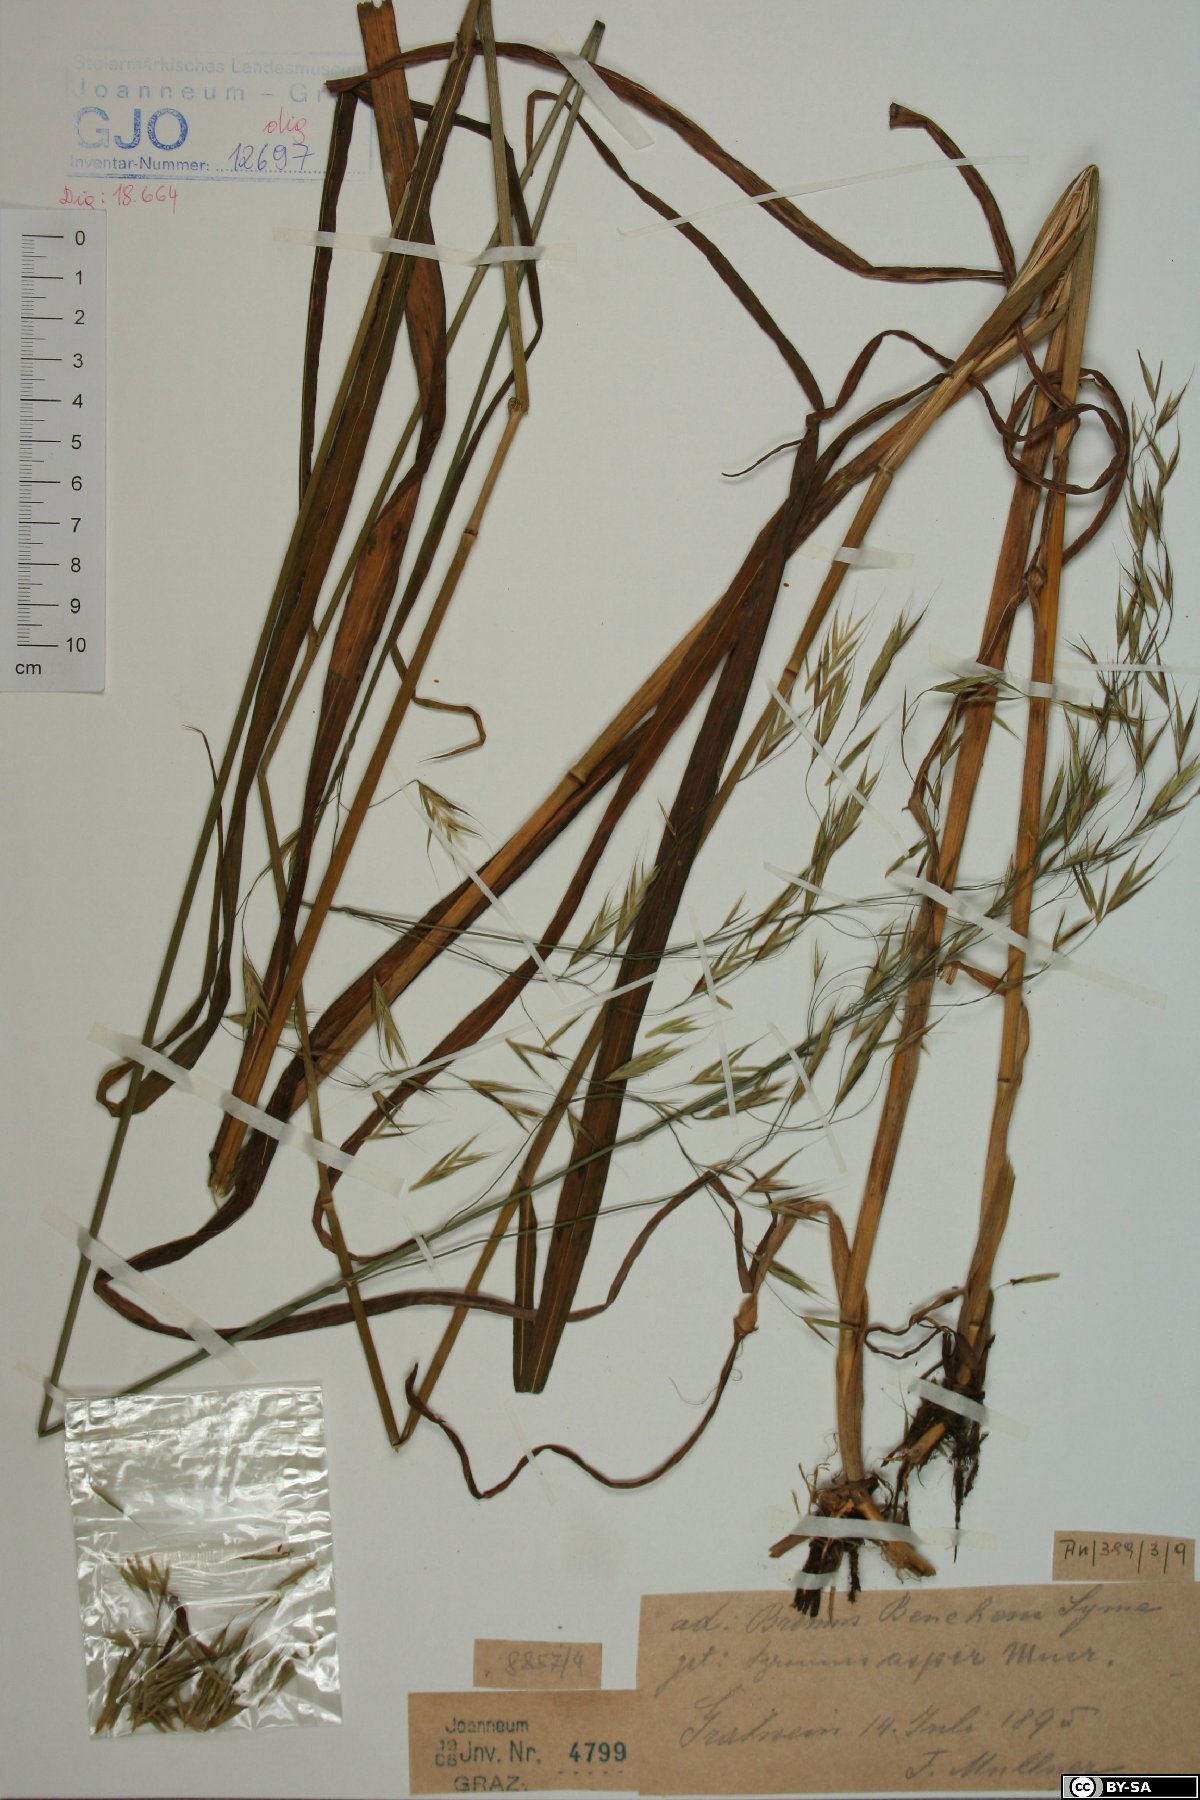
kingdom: Plantae
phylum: Tracheophyta
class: Liliopsida
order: Poales
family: Poaceae
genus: Bromus
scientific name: Bromus ramosus
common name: Hairy brome
